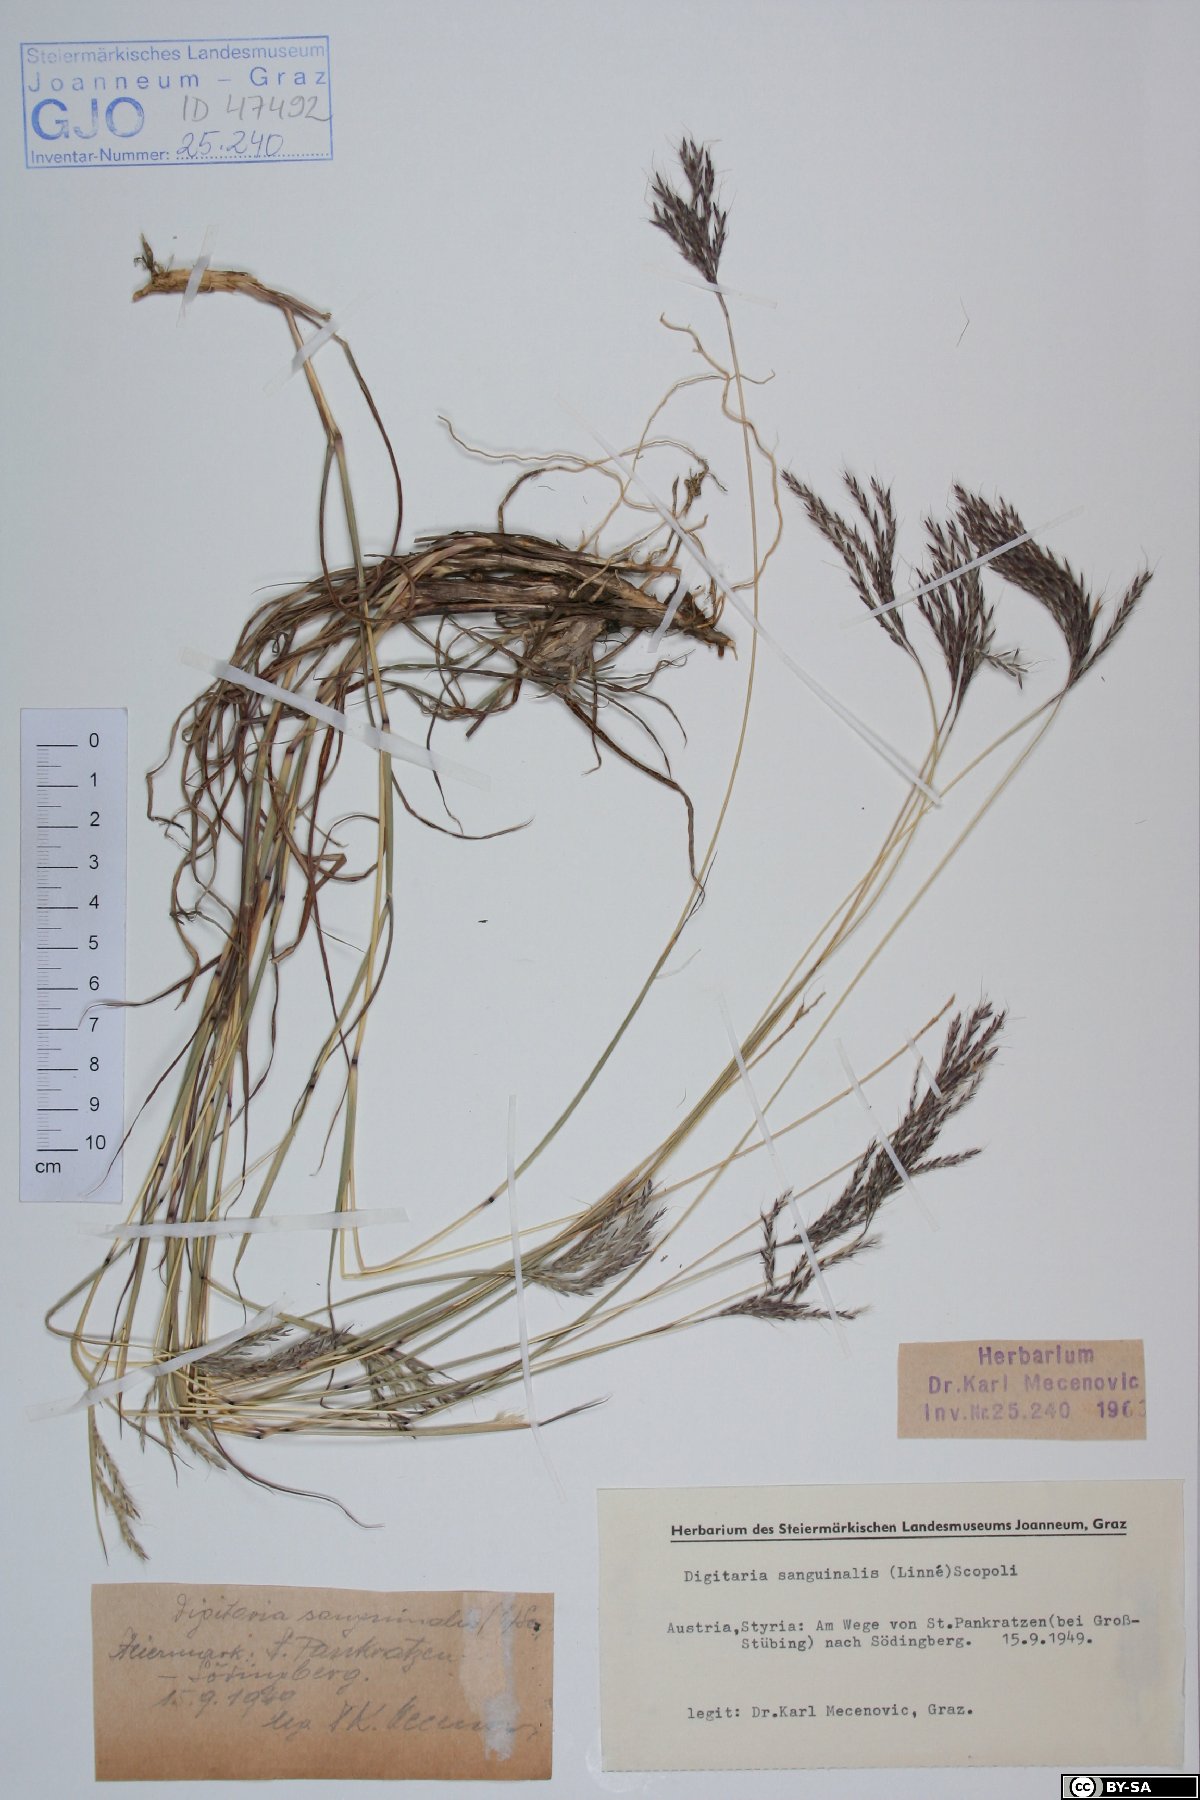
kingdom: Plantae
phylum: Tracheophyta
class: Liliopsida
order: Poales
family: Poaceae
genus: Digitaria
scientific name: Digitaria sanguinalis
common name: Hairy crabgrass
